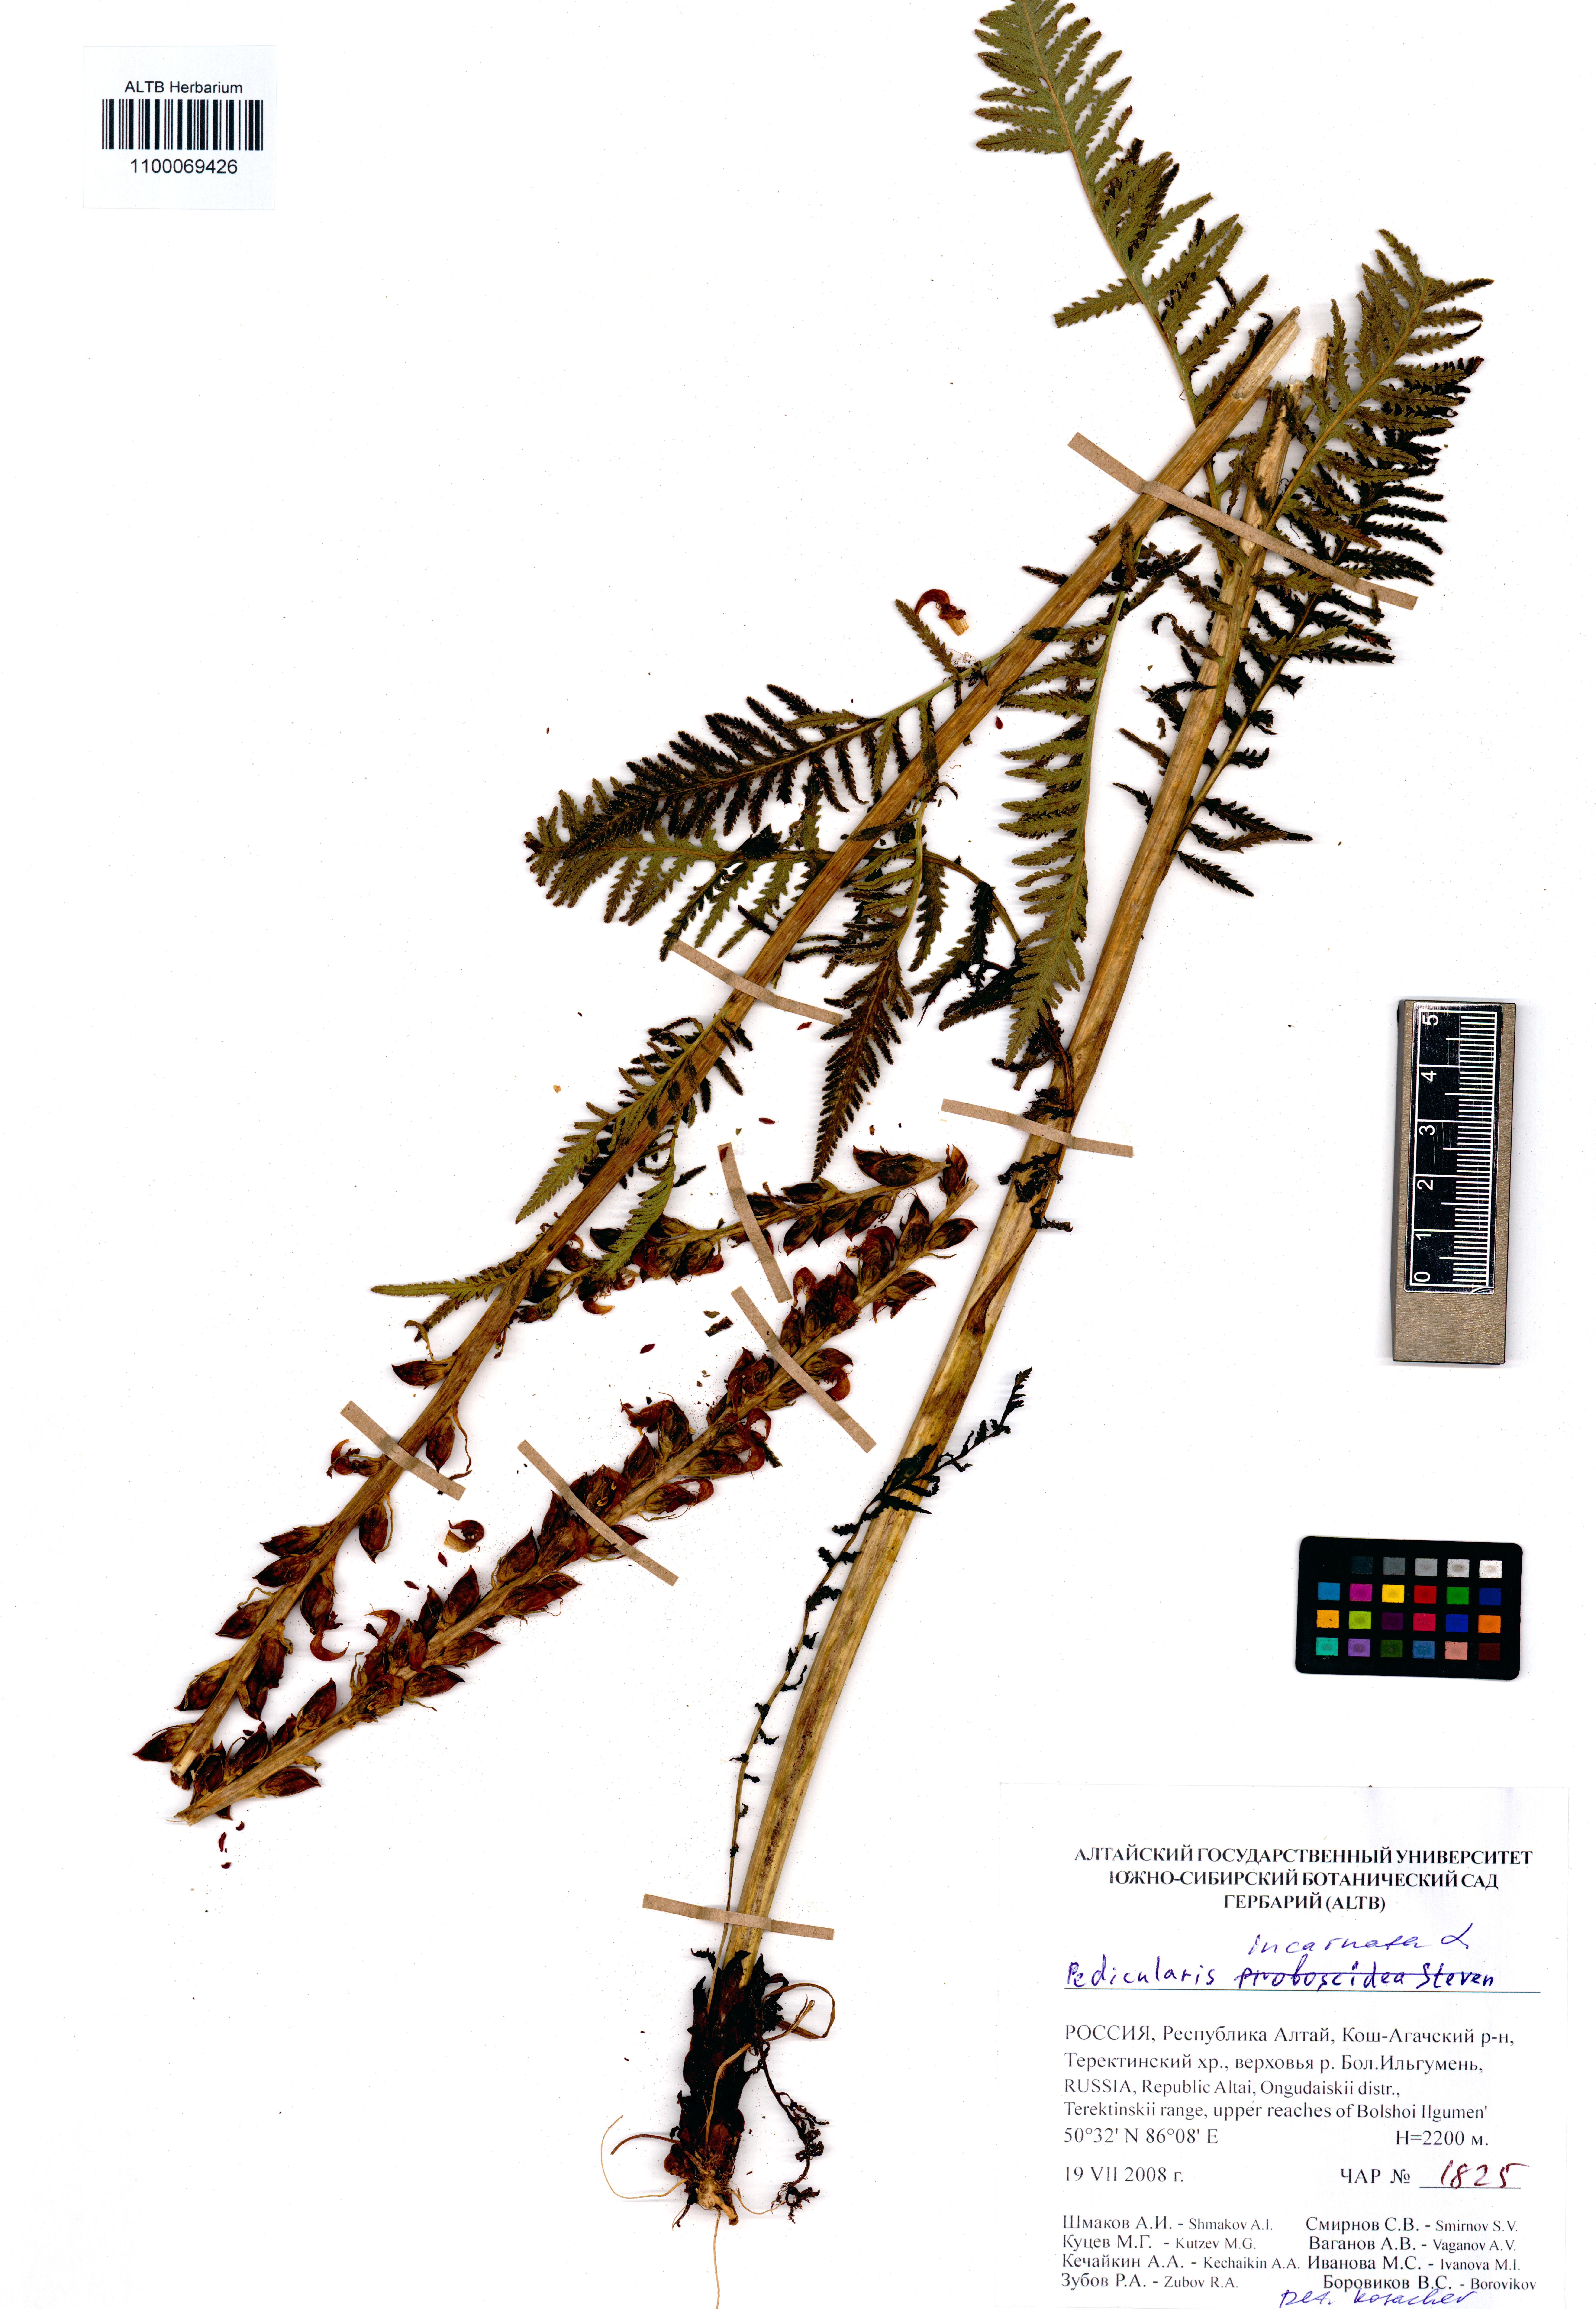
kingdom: Plantae
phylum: Tracheophyta
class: Magnoliopsida
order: Lamiales
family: Orobanchaceae
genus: Pedicularis
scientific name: Pedicularis incarnata
